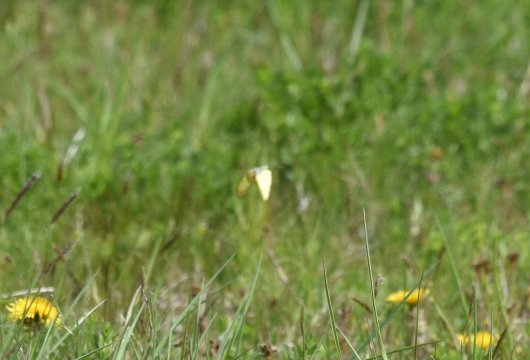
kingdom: Animalia
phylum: Arthropoda
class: Insecta
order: Lepidoptera
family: Pieridae
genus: Colias
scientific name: Colias philodice
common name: Clouded Sulphur
